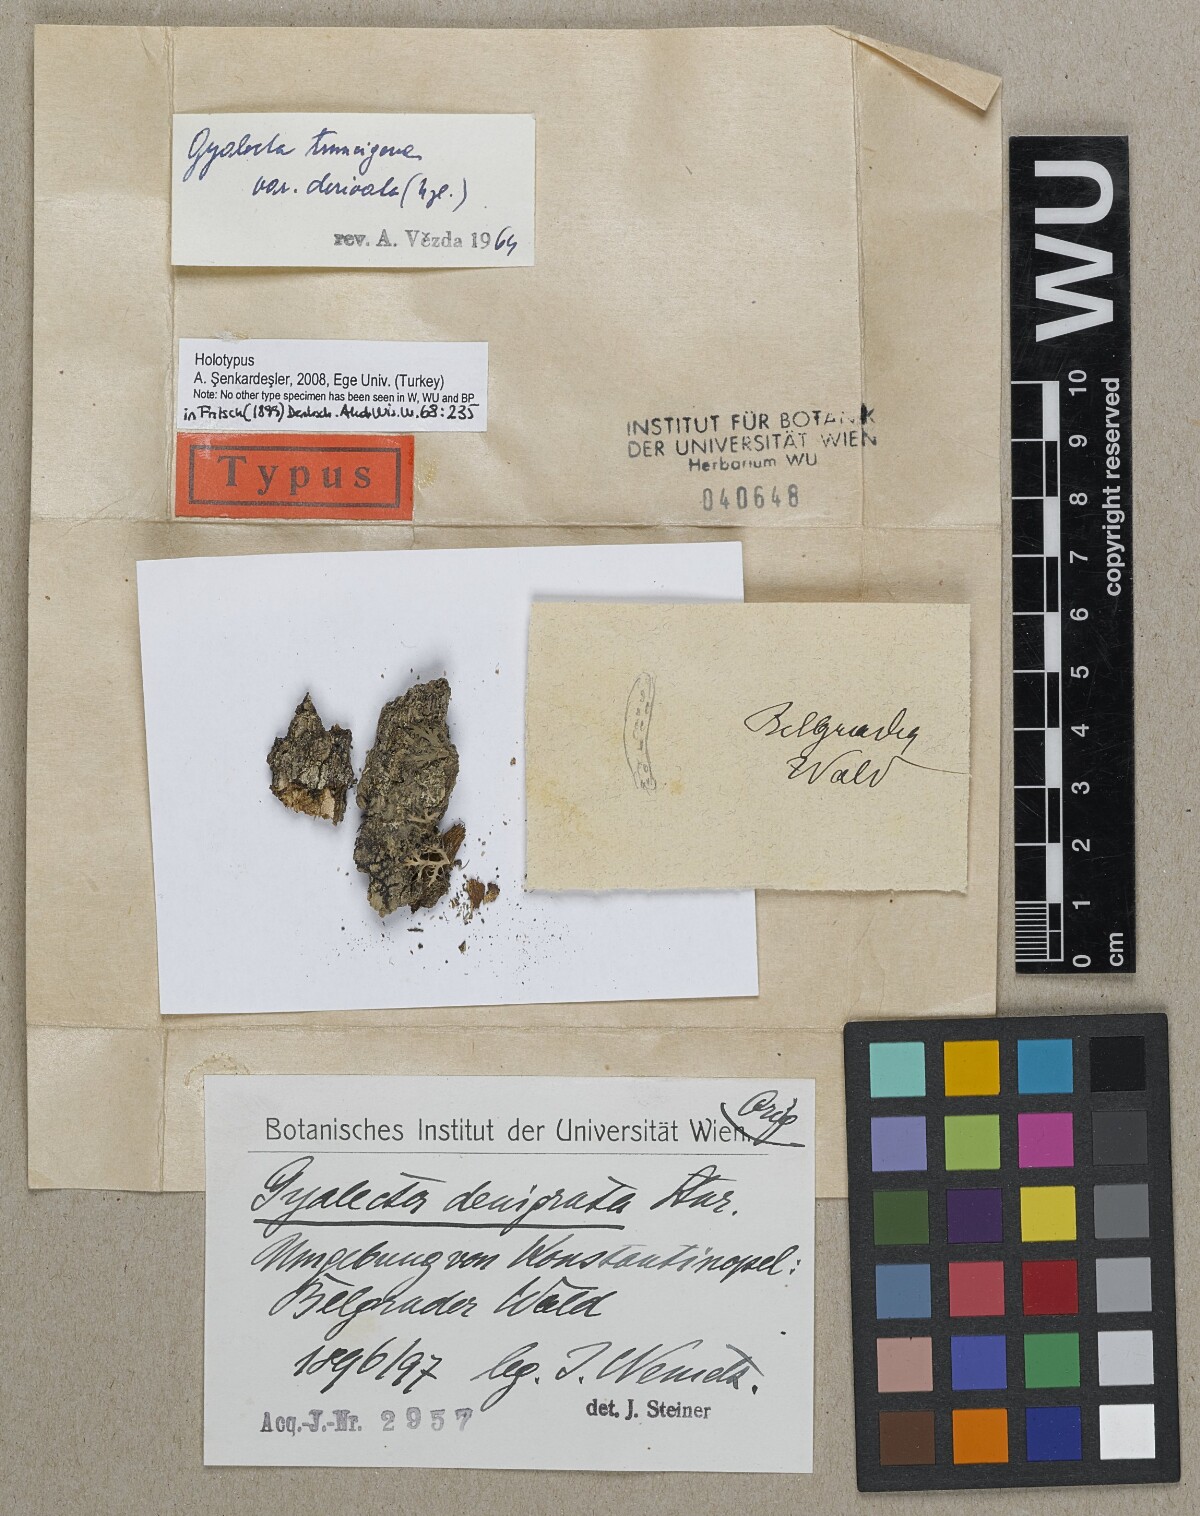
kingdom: Fungi
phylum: Ascomycota
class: Lecanoromycetes
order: Gyalectales
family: Gyalectaceae
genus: Gyalecta
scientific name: Gyalecta derivata
